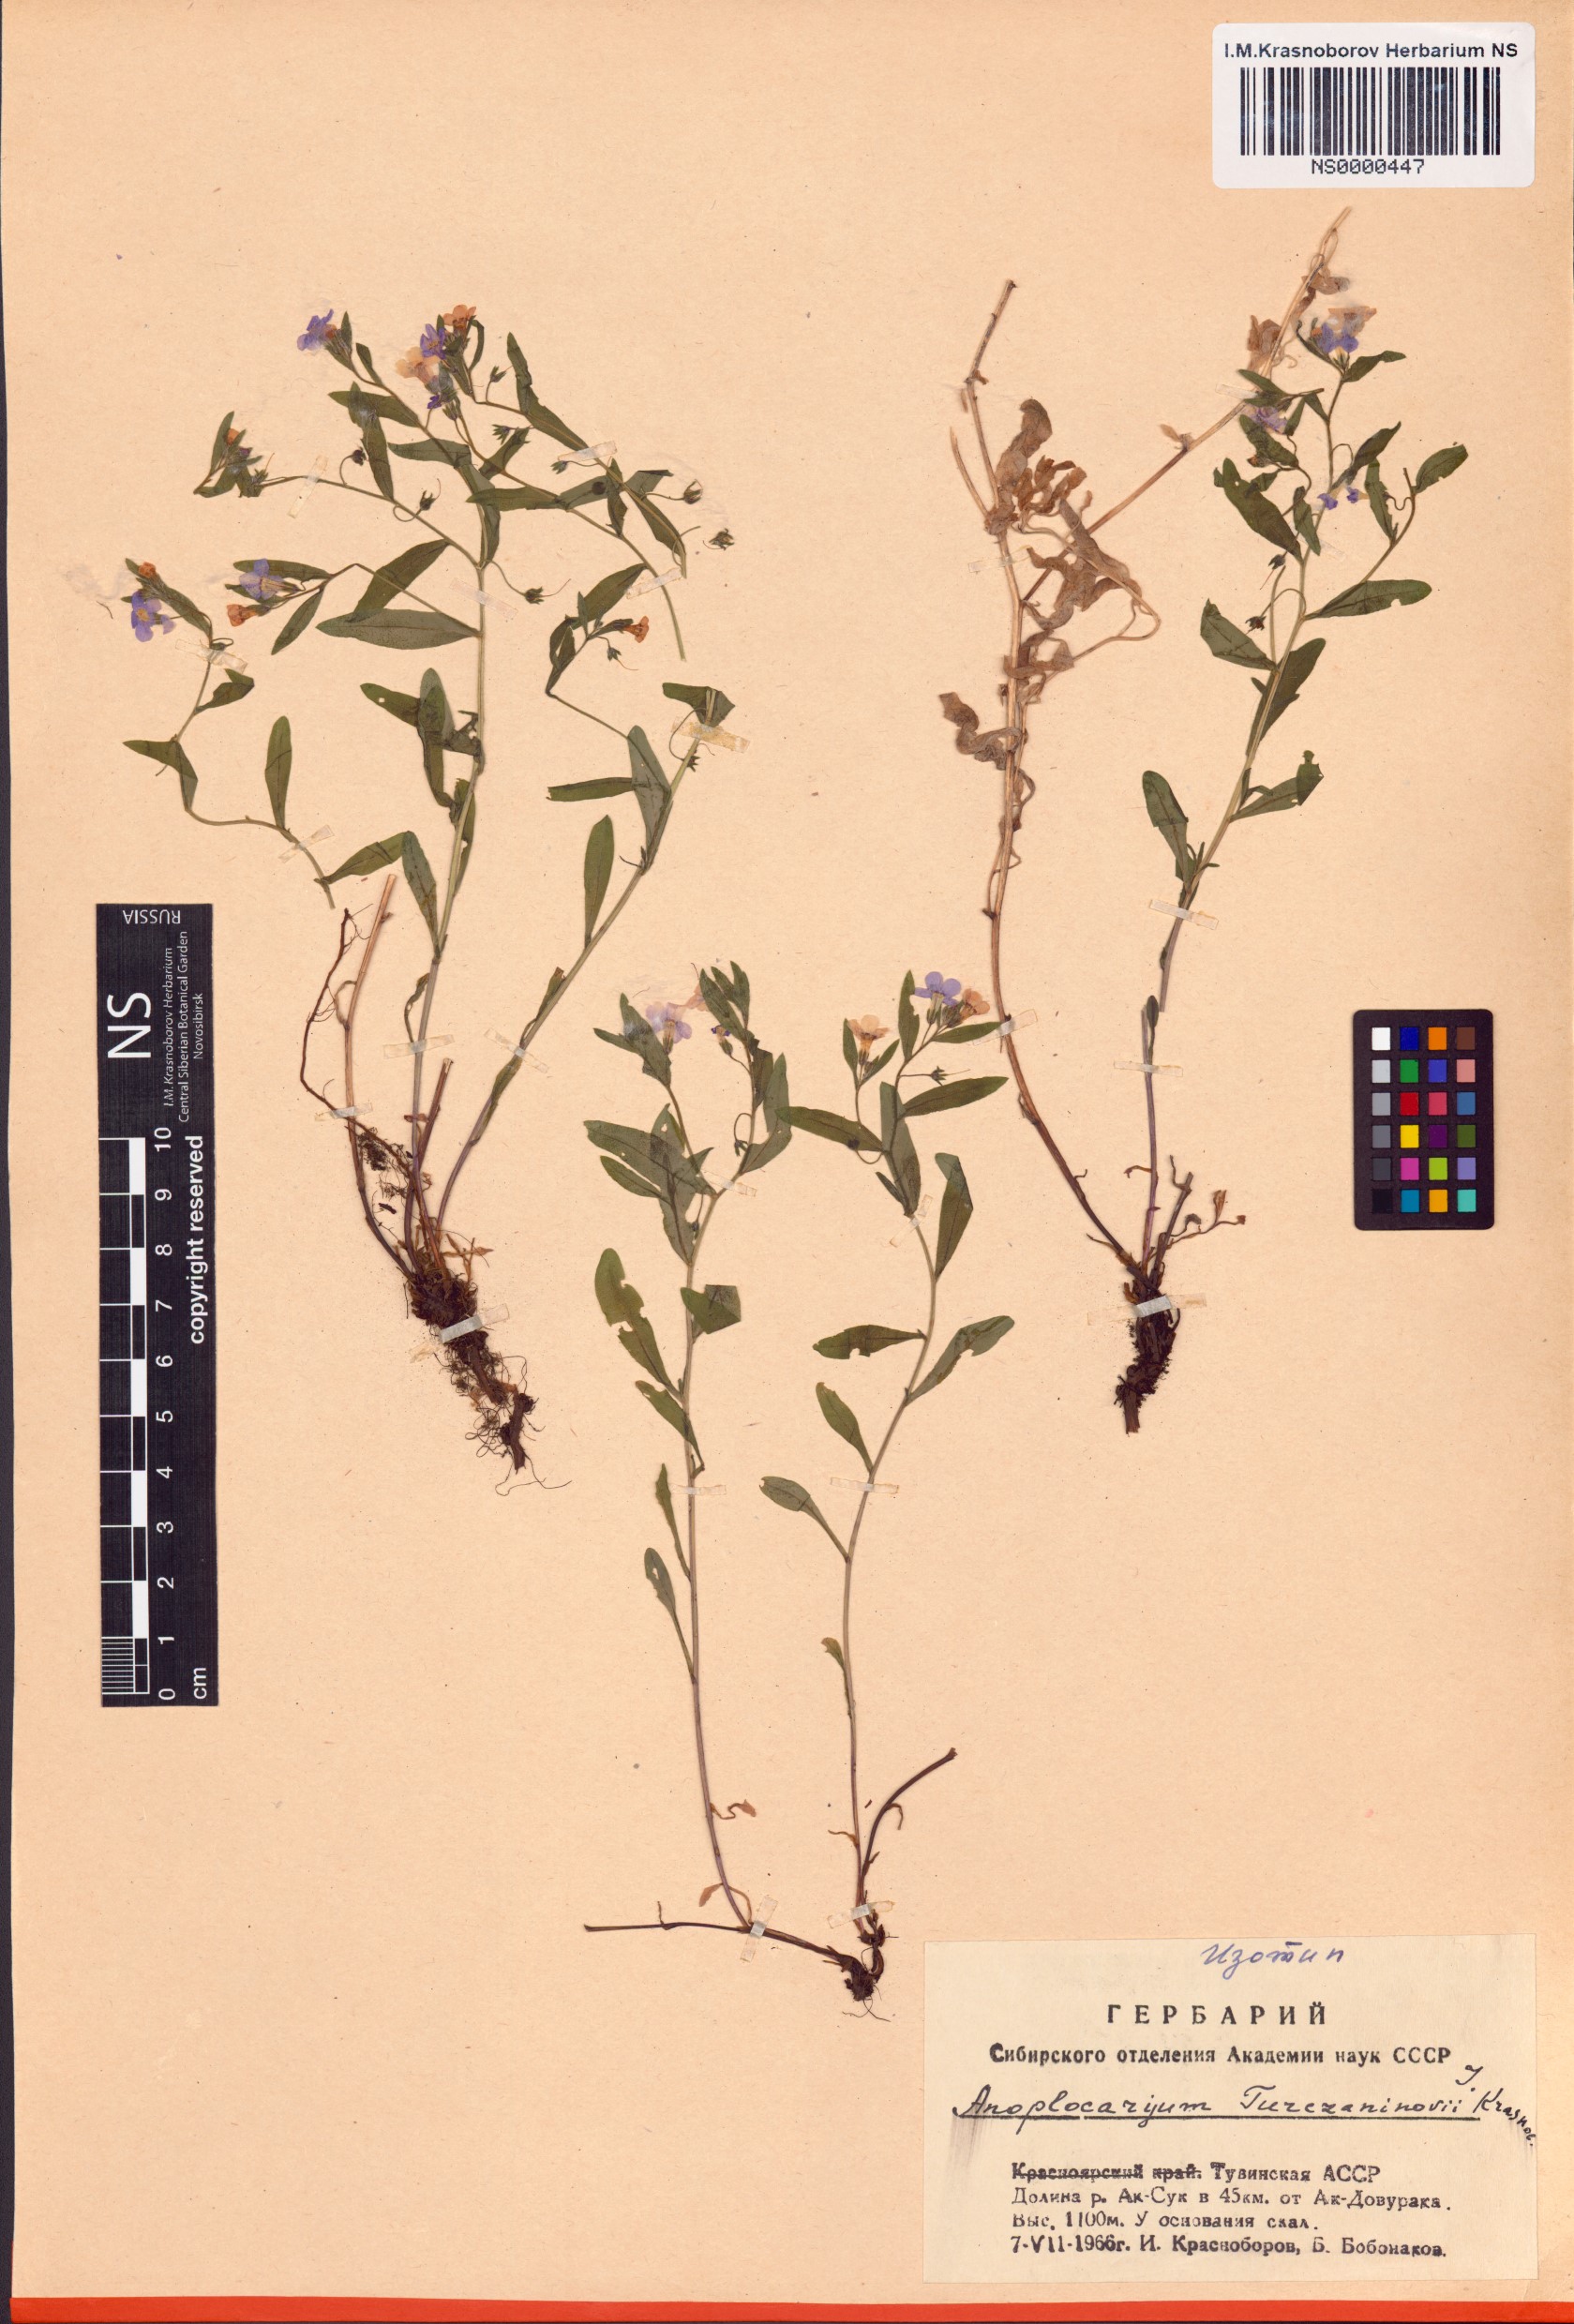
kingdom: Plantae
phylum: Tracheophyta
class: Magnoliopsida
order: Boraginales
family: Boraginaceae
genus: Anoplocaryum
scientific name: Anoplocaryum turczaninovii
